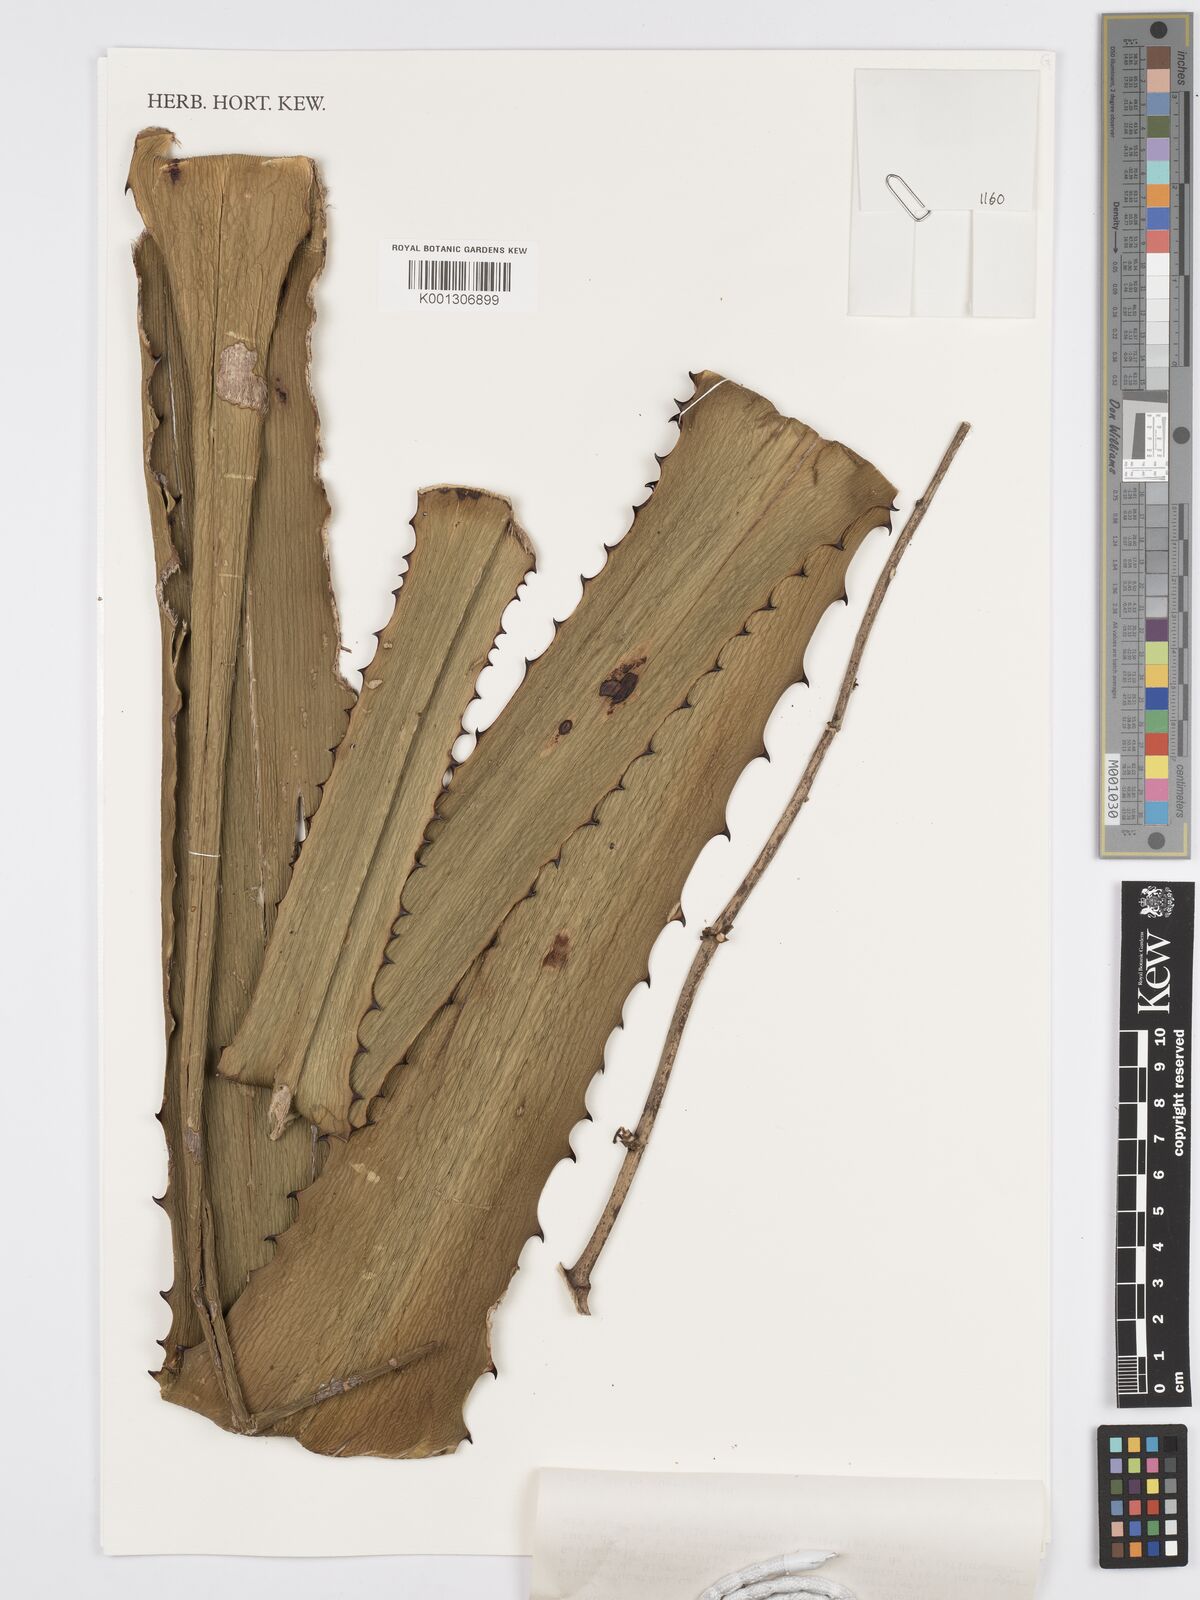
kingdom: Plantae
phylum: Tracheophyta
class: Liliopsida
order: Asparagales
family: Asparagaceae
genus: Furcraea
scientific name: Furcraea hexapetala
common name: Cuban-hemp
